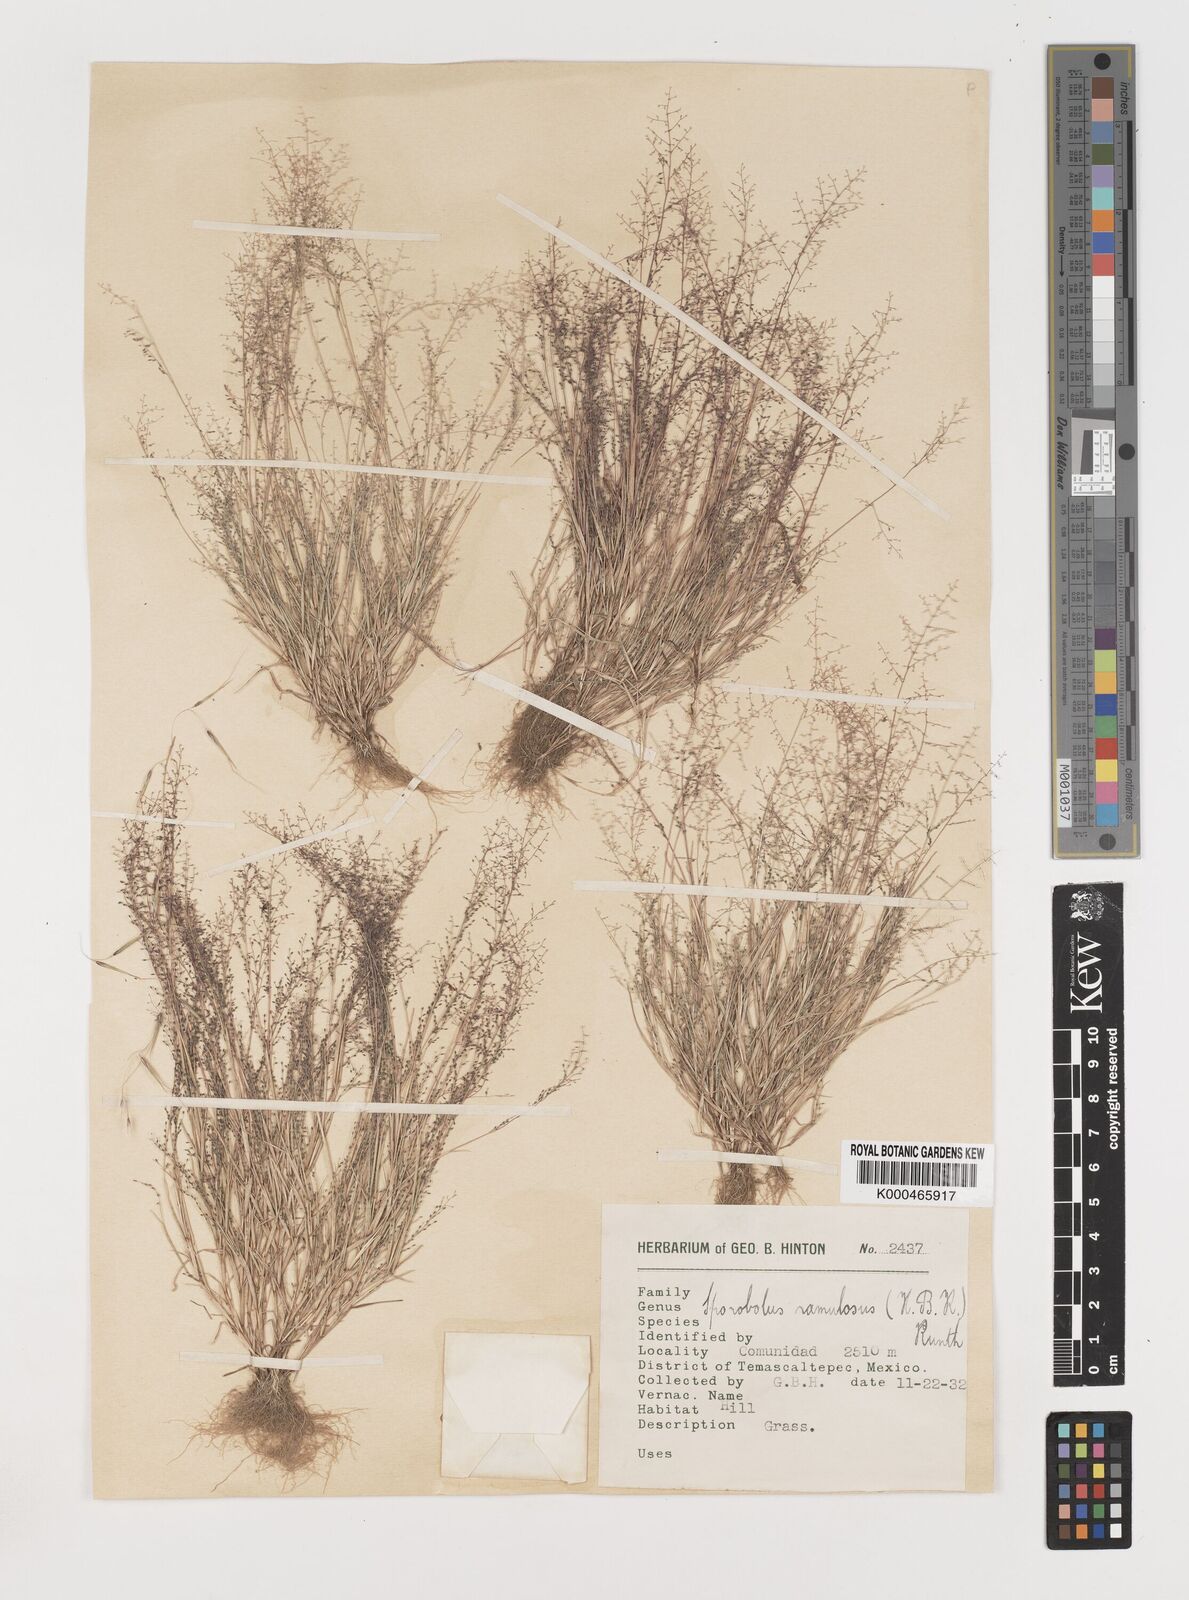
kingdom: Plantae
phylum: Tracheophyta
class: Liliopsida
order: Poales
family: Poaceae
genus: Muhlenbergia
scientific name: Muhlenbergia ramulosa
